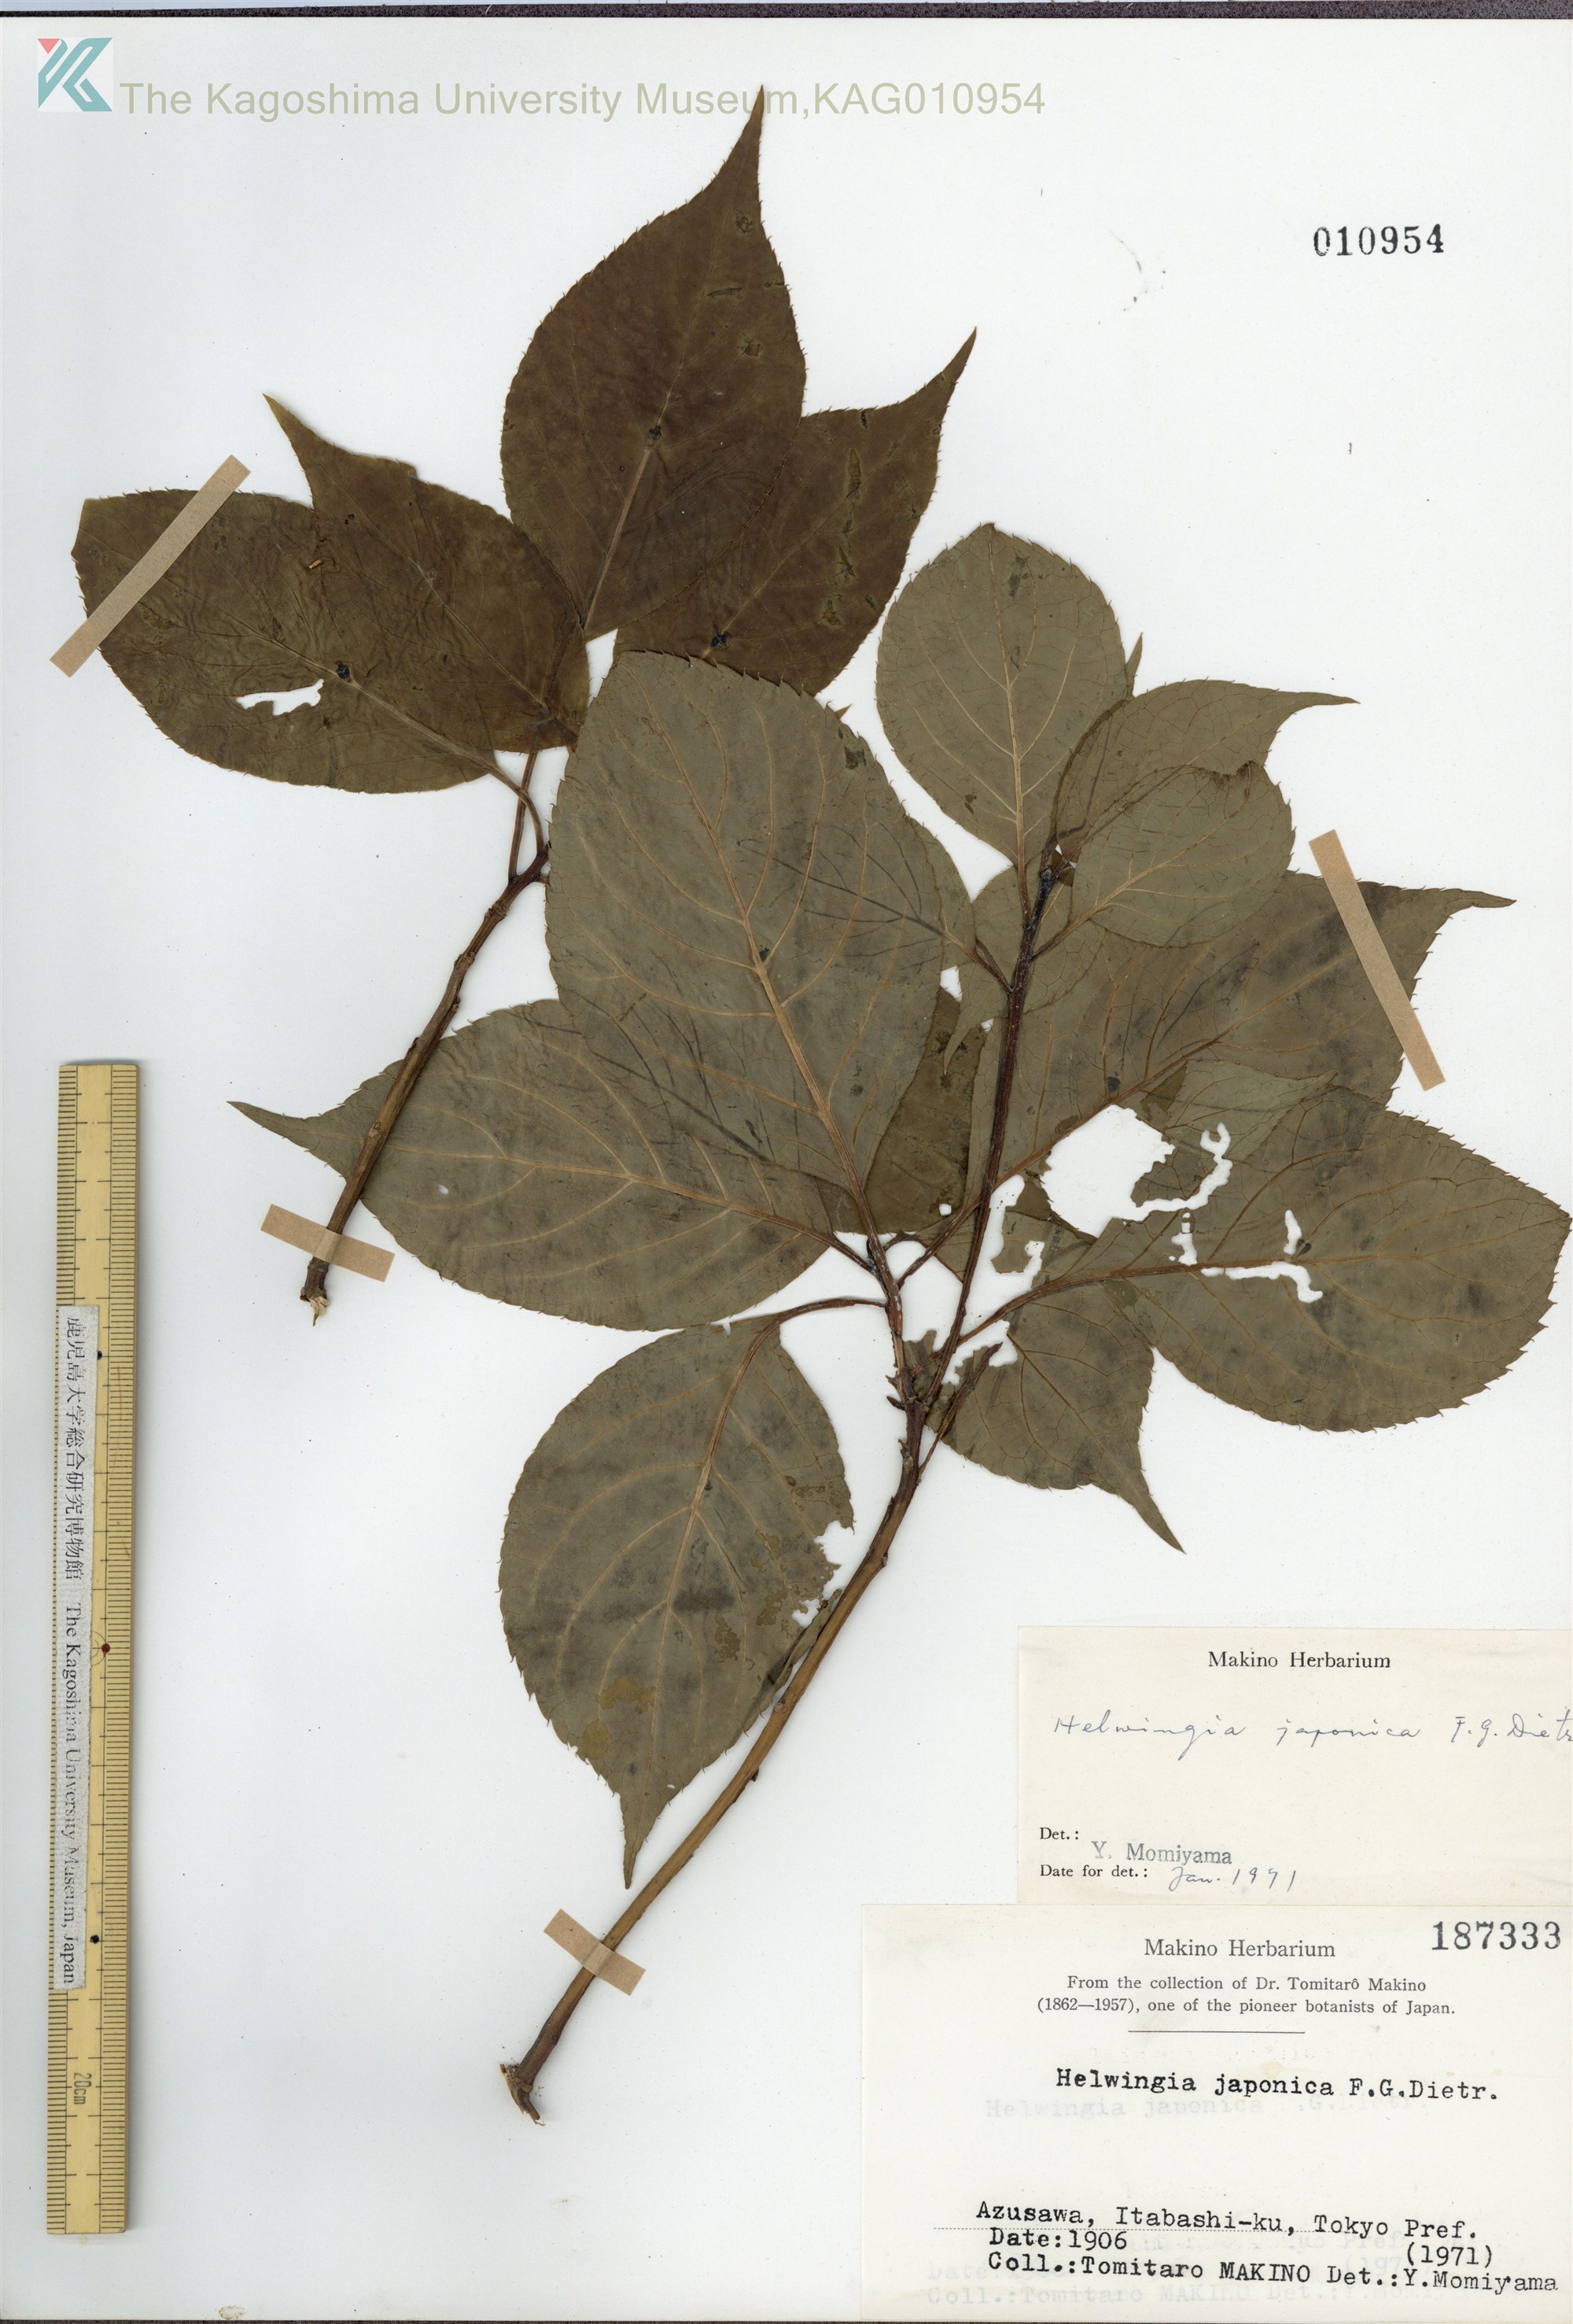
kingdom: Plantae
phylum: Tracheophyta
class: Magnoliopsida
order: Aquifoliales
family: Helwingiaceae
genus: Helwingia
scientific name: Helwingia japonica
